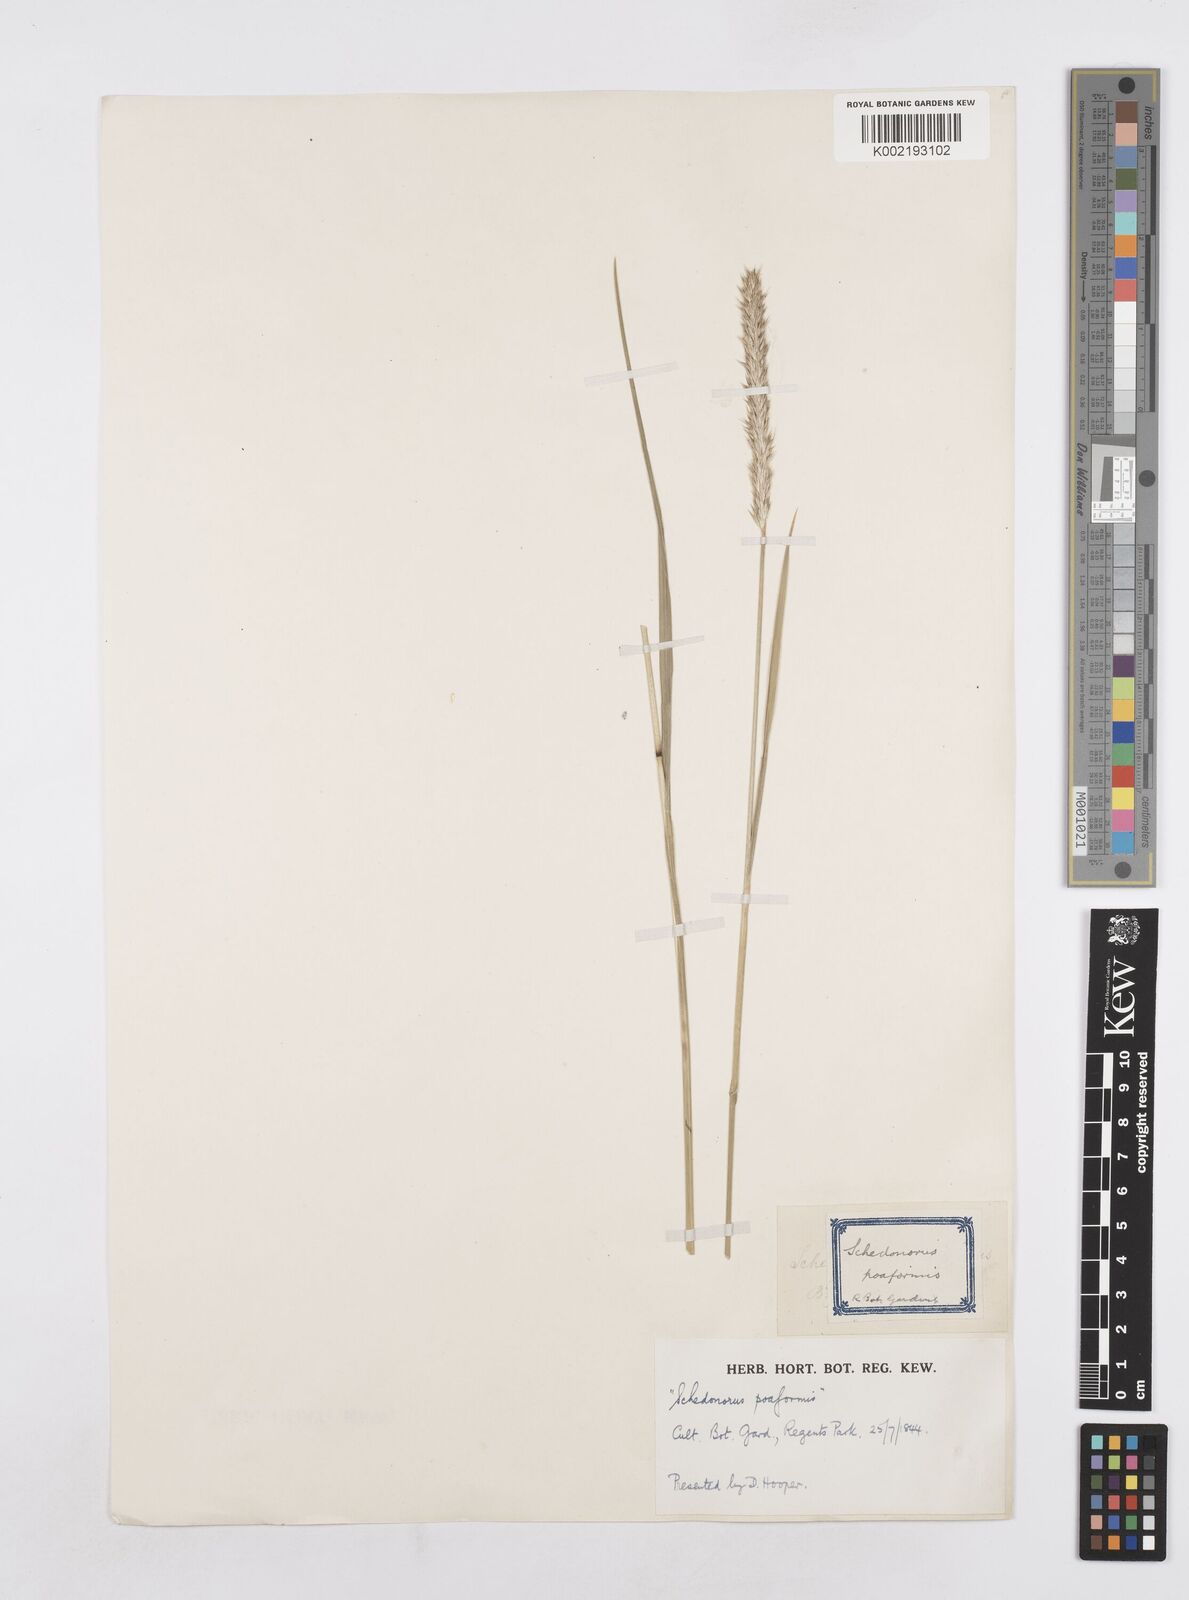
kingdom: Plantae
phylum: Tracheophyta
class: Liliopsida
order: Poales
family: Poaceae
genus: Sesleria
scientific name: Sesleria
